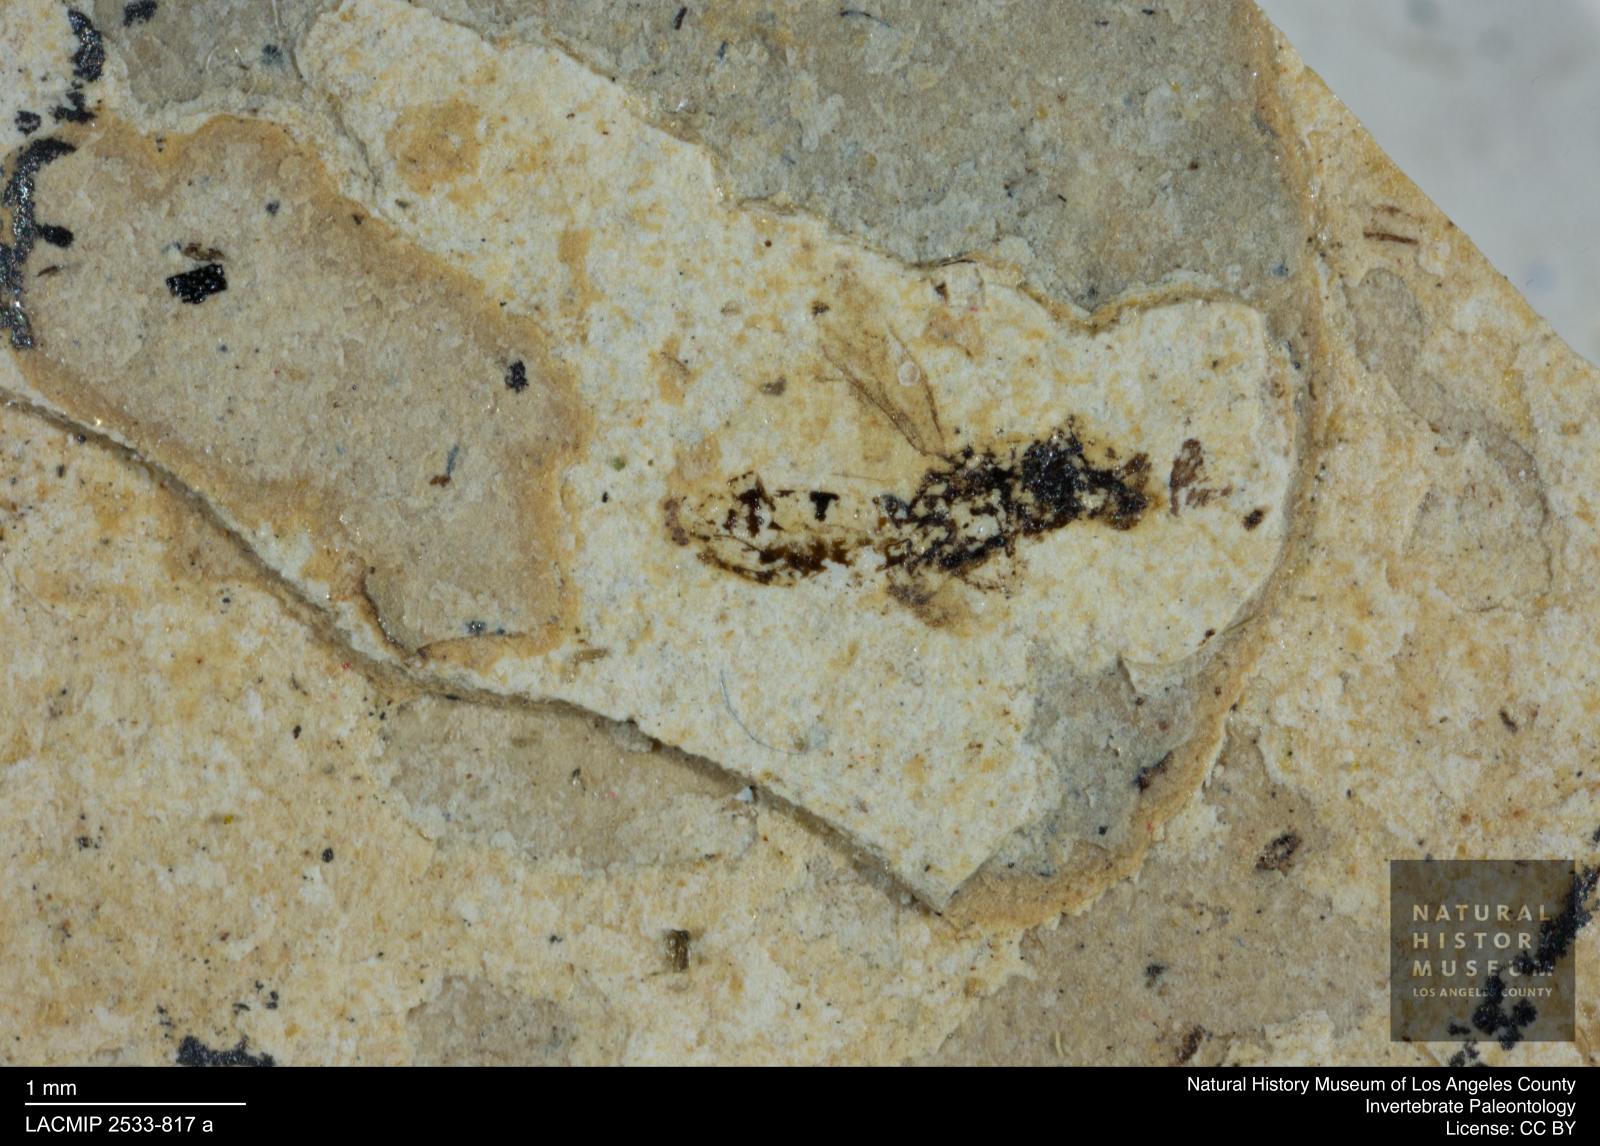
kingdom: Animalia
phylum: Arthropoda
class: Insecta
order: Hymenoptera
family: Eulophidae
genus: Eulophus
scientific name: Eulophus elegantulus
